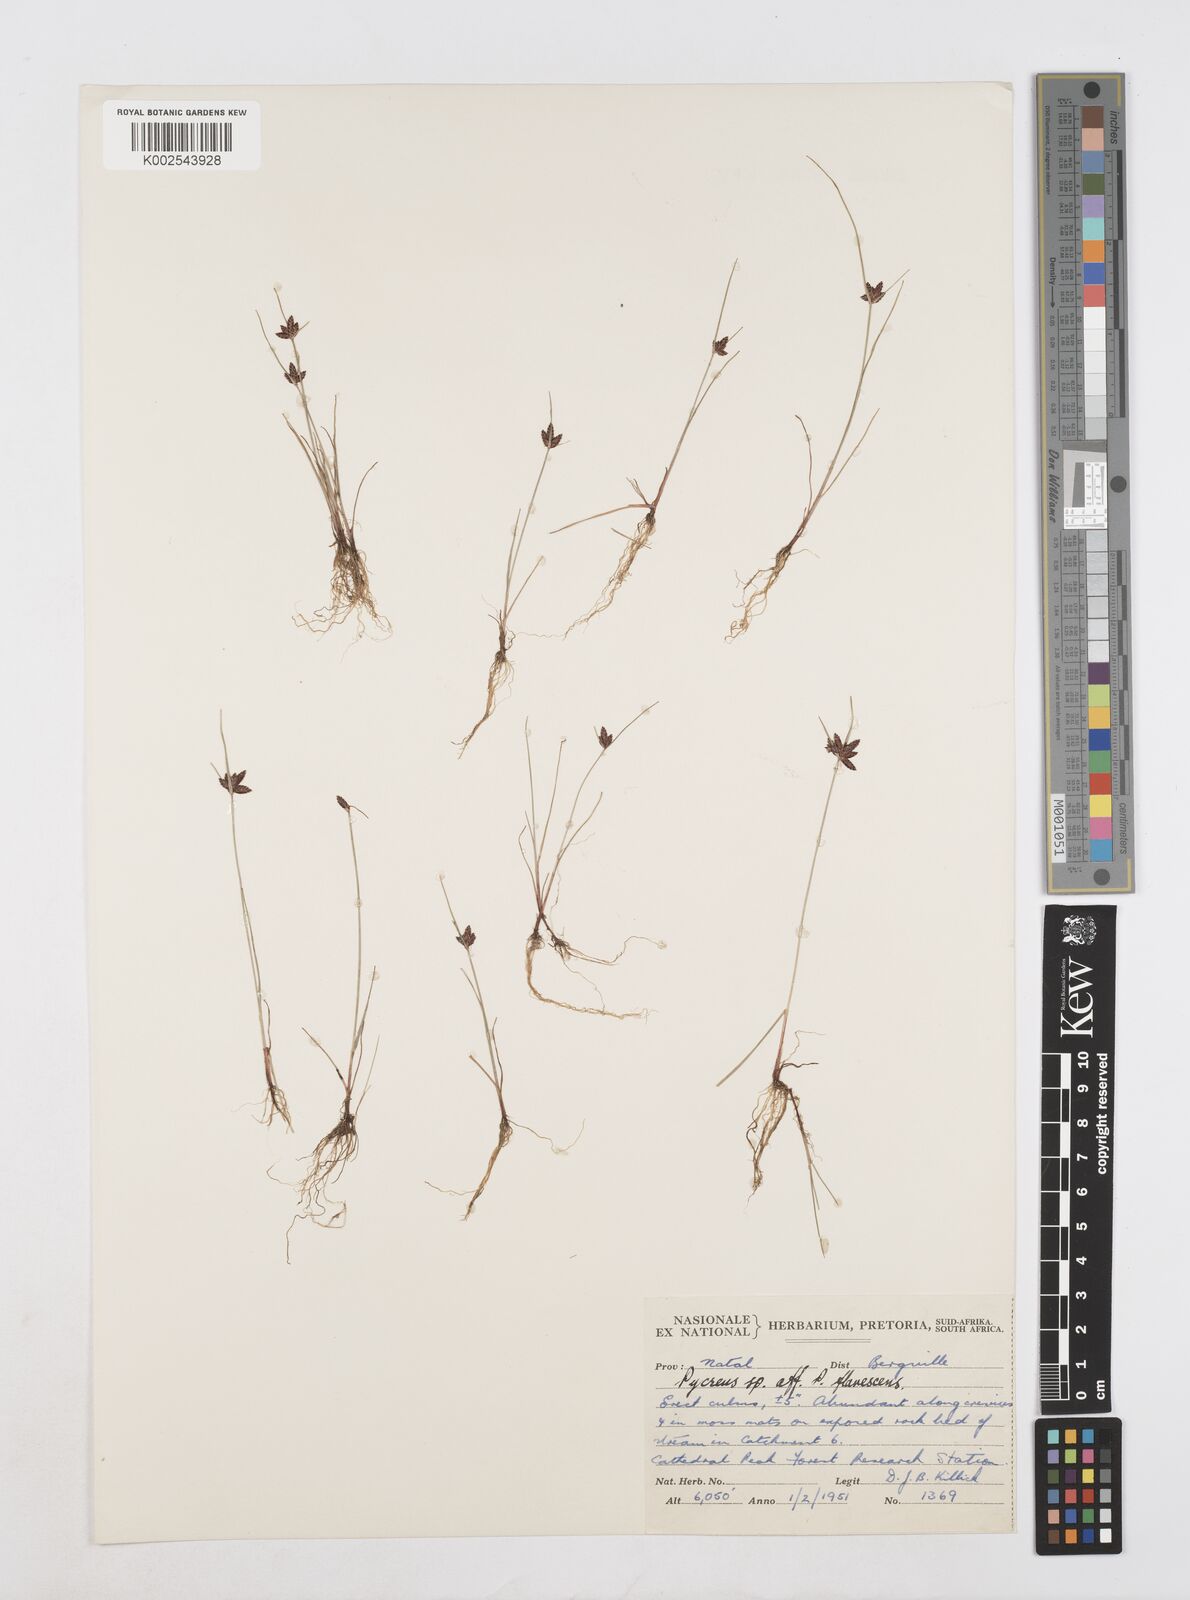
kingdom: Plantae
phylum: Tracheophyta
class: Liliopsida
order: Poales
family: Cyperaceae
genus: Cyperus
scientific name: Cyperus flavescens
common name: Yellow galingale
